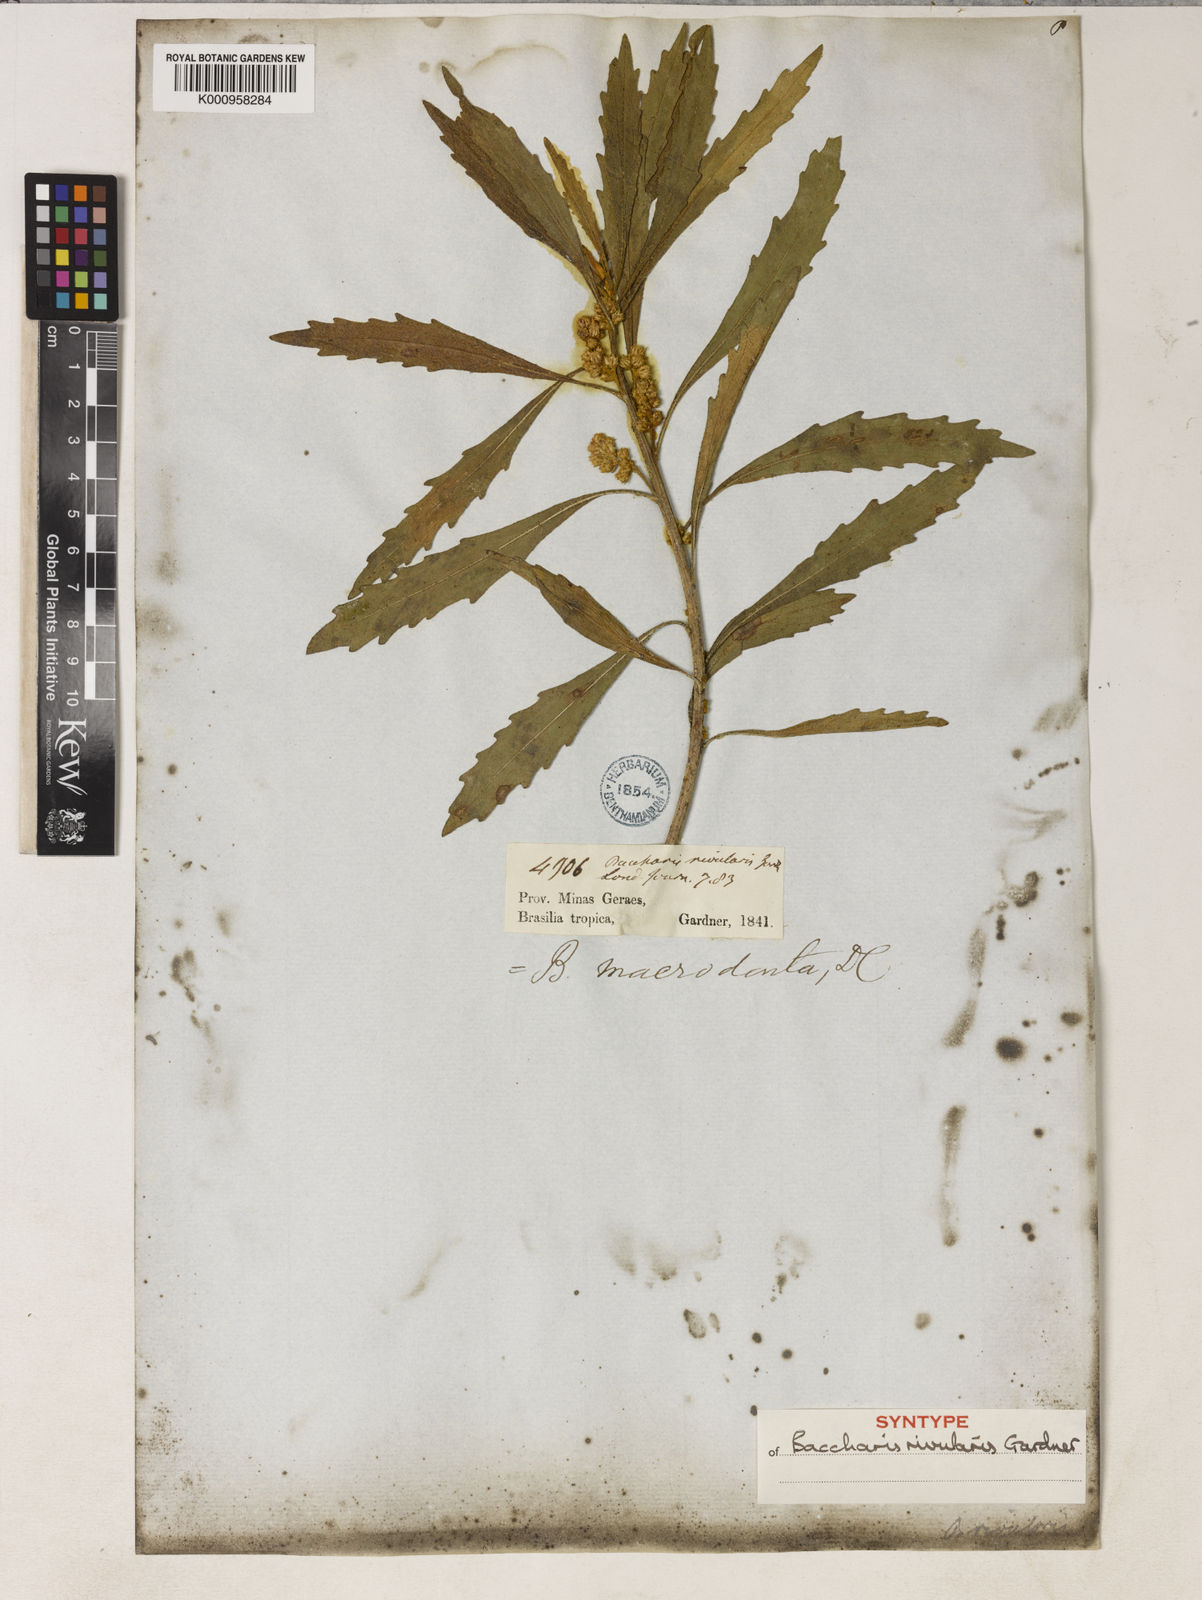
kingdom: Plantae
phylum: Tracheophyta
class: Magnoliopsida
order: Asterales
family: Asteraceae
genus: Baccharis
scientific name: Baccharis rivularis
